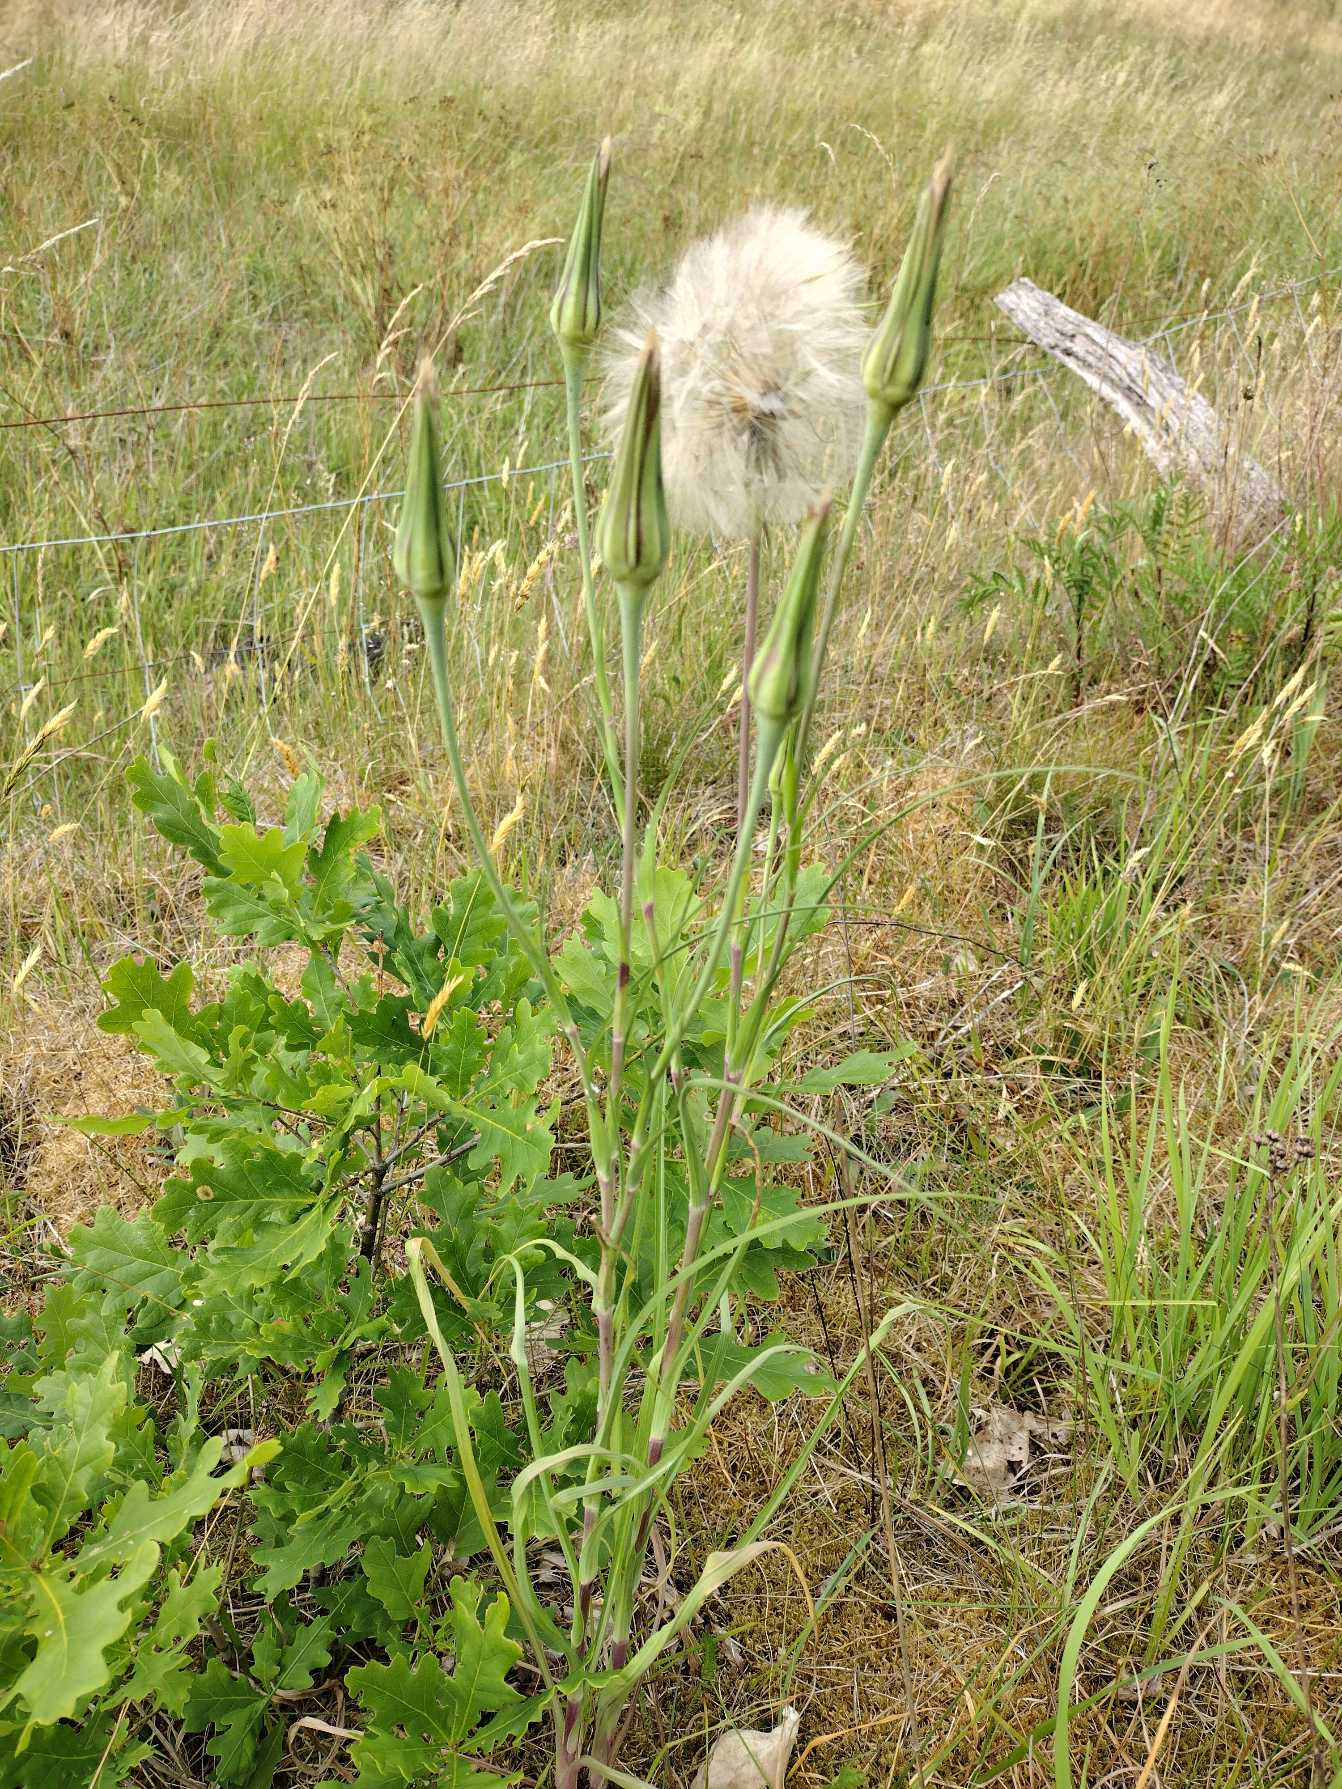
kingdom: Plantae
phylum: Tracheophyta
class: Magnoliopsida
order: Asterales
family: Asteraceae
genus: Tragopogon
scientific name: Tragopogon pratensis
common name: Gedeskæg
